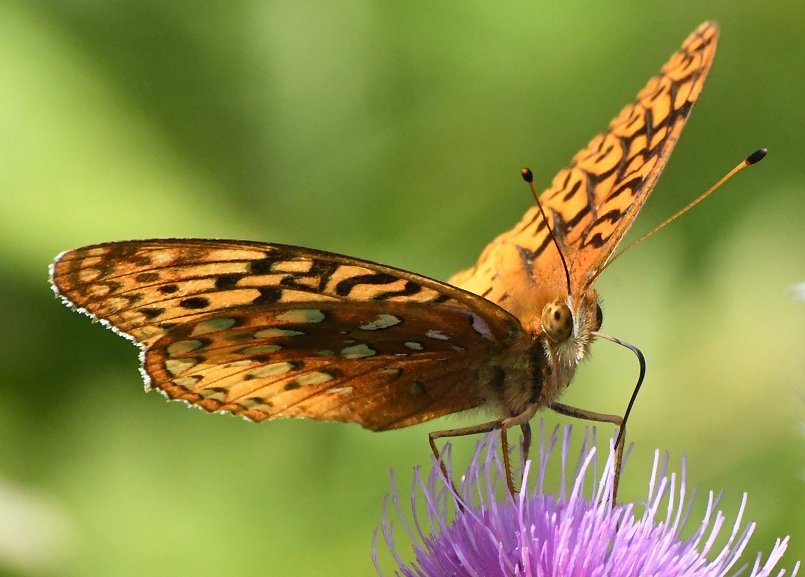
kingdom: Animalia
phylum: Arthropoda
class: Insecta
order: Lepidoptera
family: Nymphalidae
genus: Speyeria
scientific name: Speyeria cybele
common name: Great Spangled Fritillary
